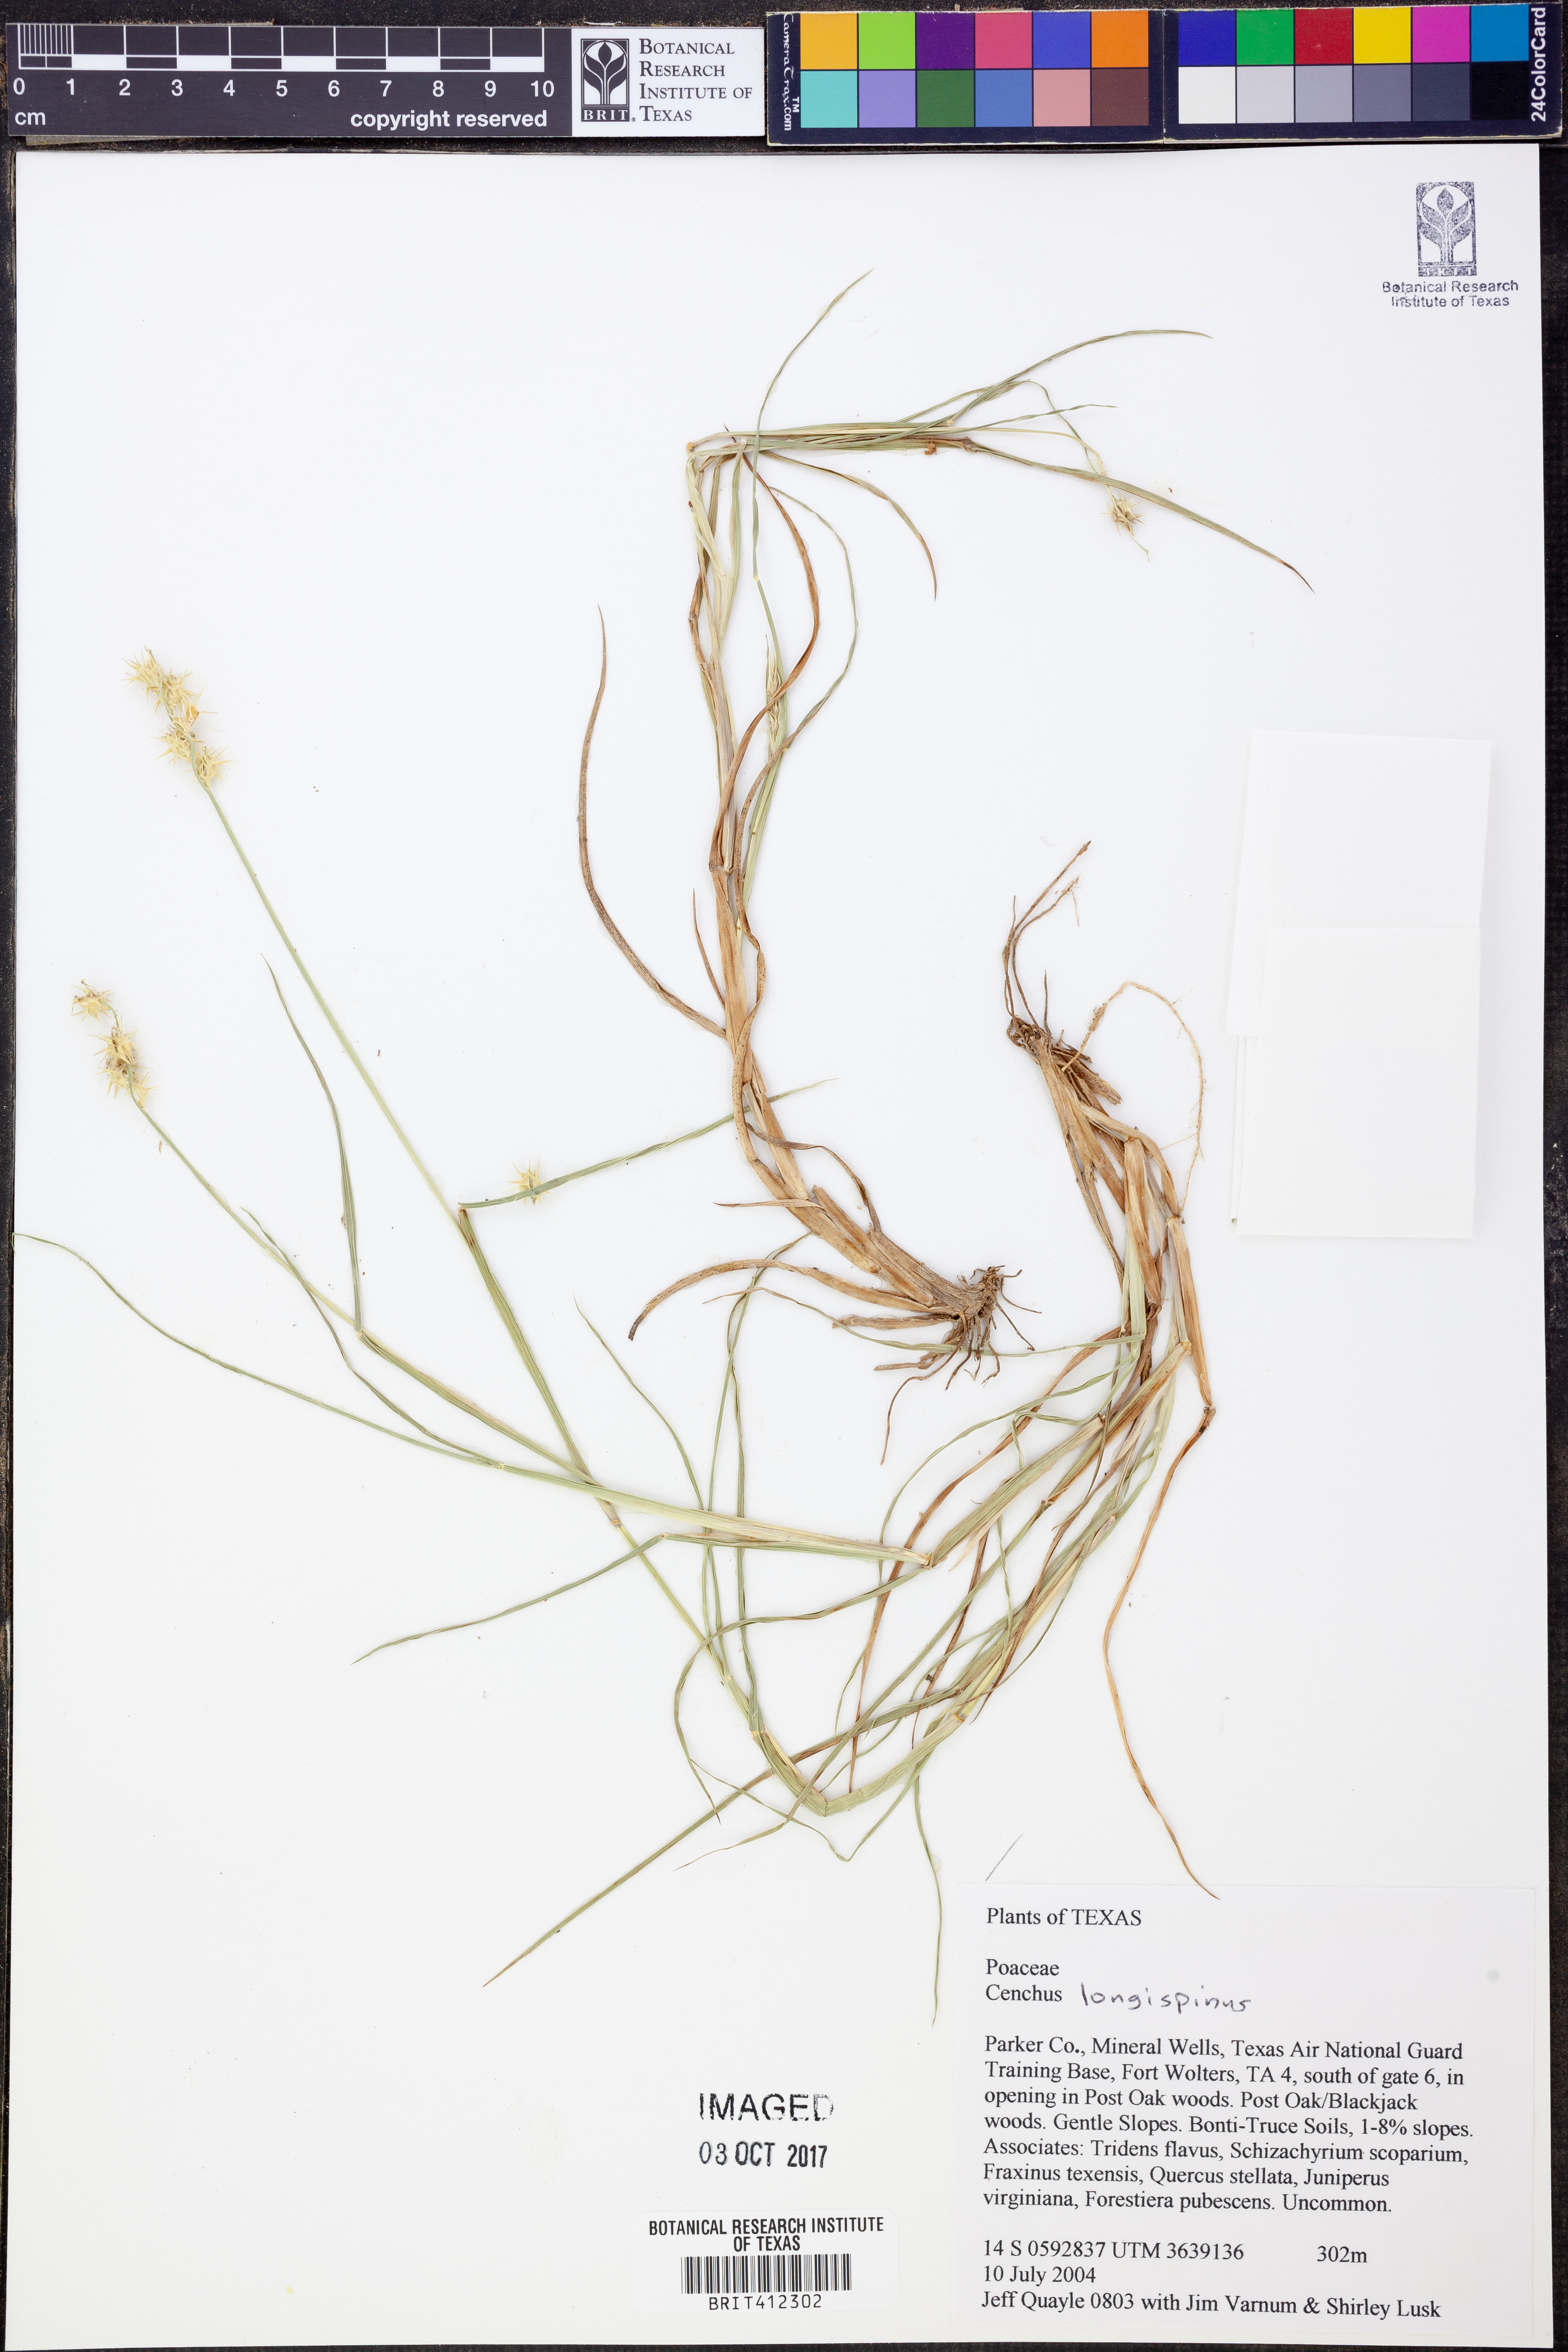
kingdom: Plantae
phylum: Tracheophyta
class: Liliopsida
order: Poales
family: Poaceae
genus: Cenchrus
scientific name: Cenchrus longispinus
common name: Mat sandbur
